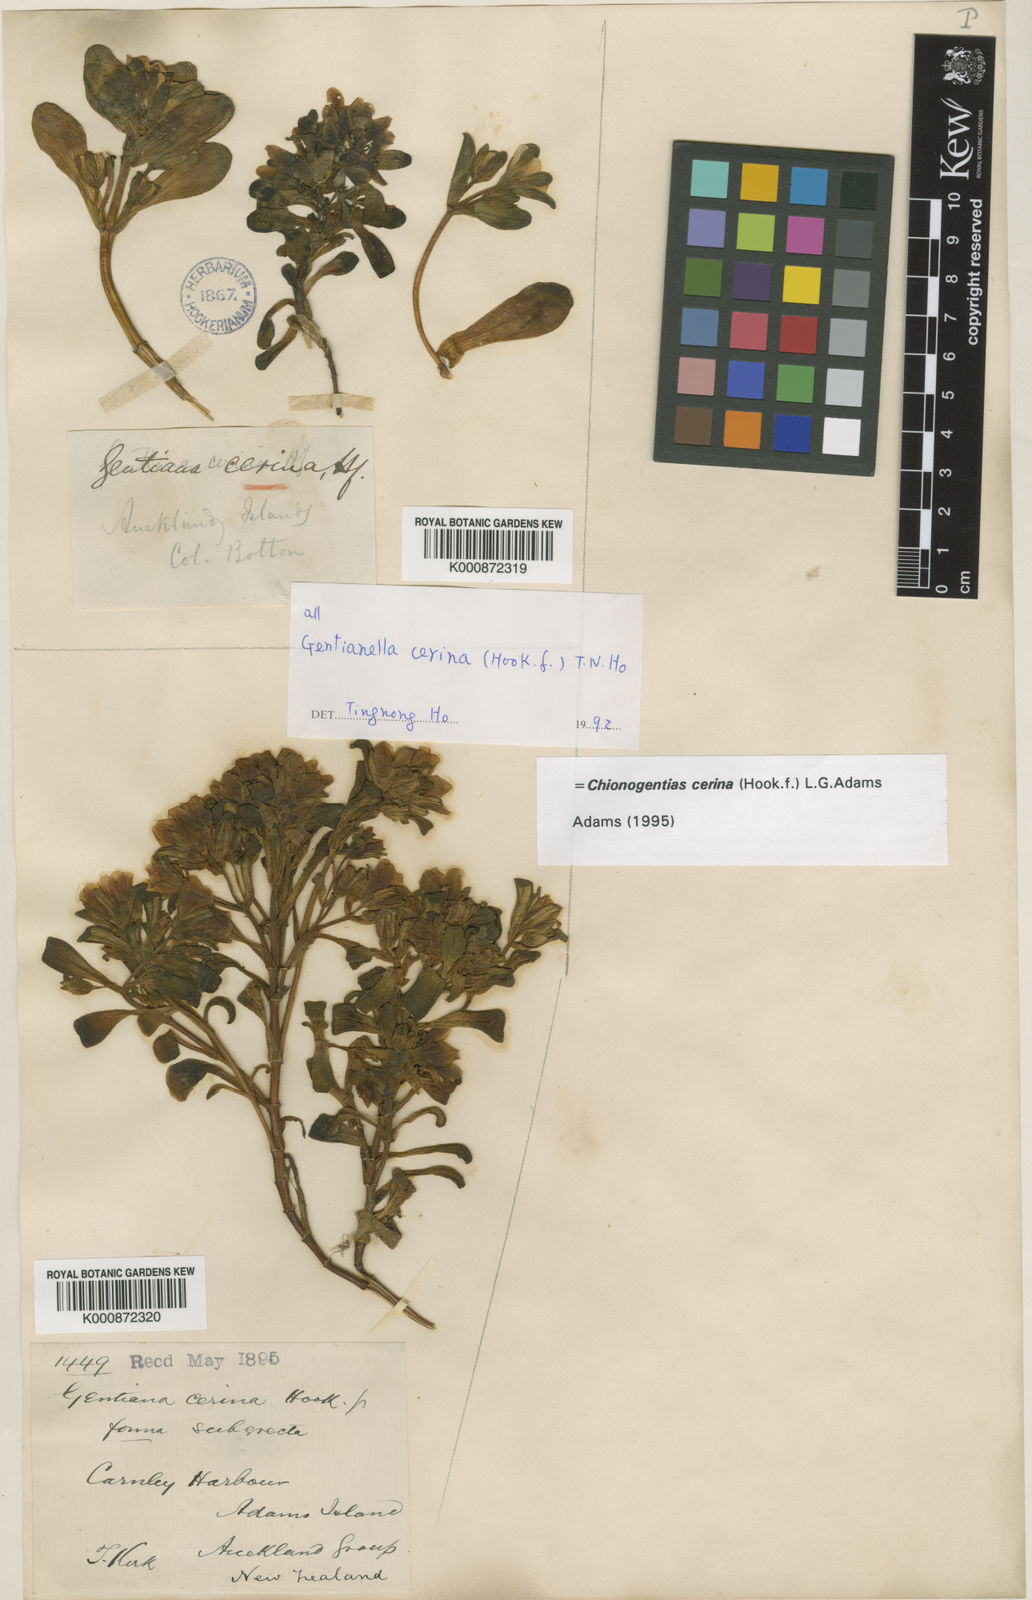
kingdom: Plantae
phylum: Tracheophyta
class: Magnoliopsida
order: Gentianales
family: Gentianaceae
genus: Gentianella
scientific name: Gentianella cerina
